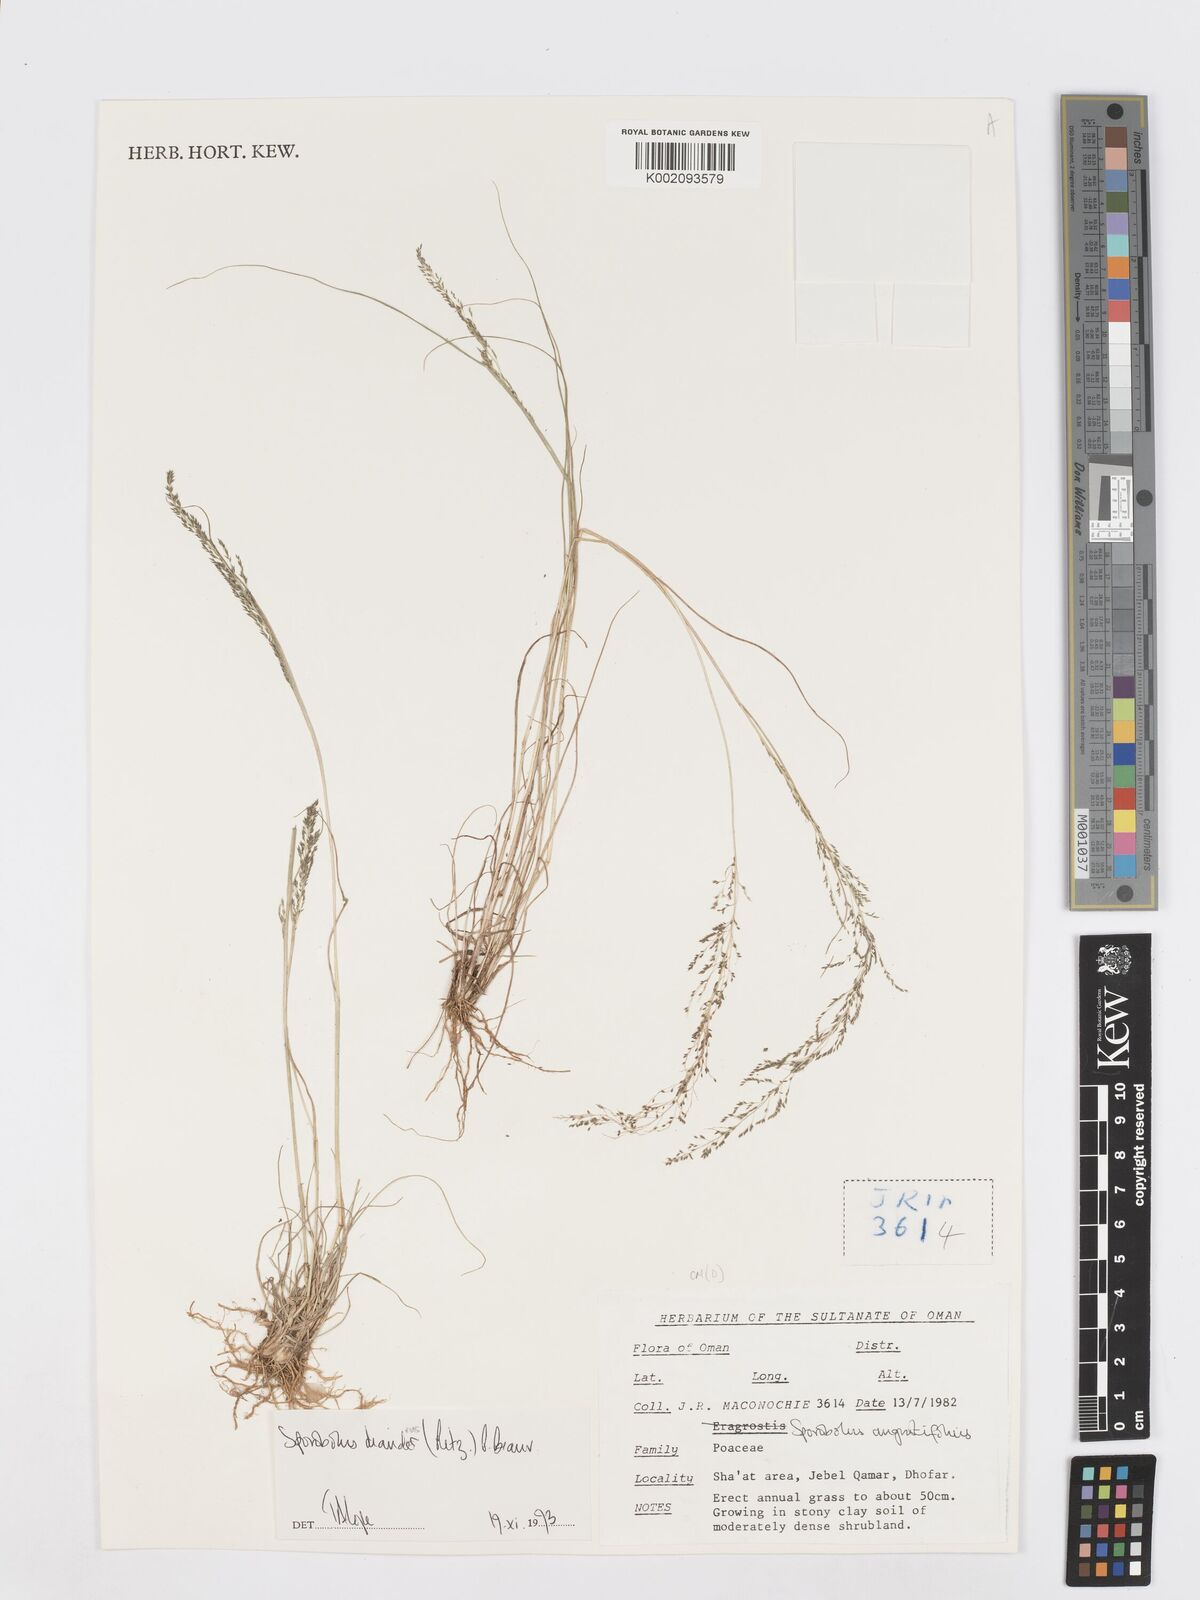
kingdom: Plantae
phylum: Tracheophyta
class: Liliopsida
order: Poales
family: Poaceae
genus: Sporobolus
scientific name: Sporobolus diandrus
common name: Tussock dropseed
